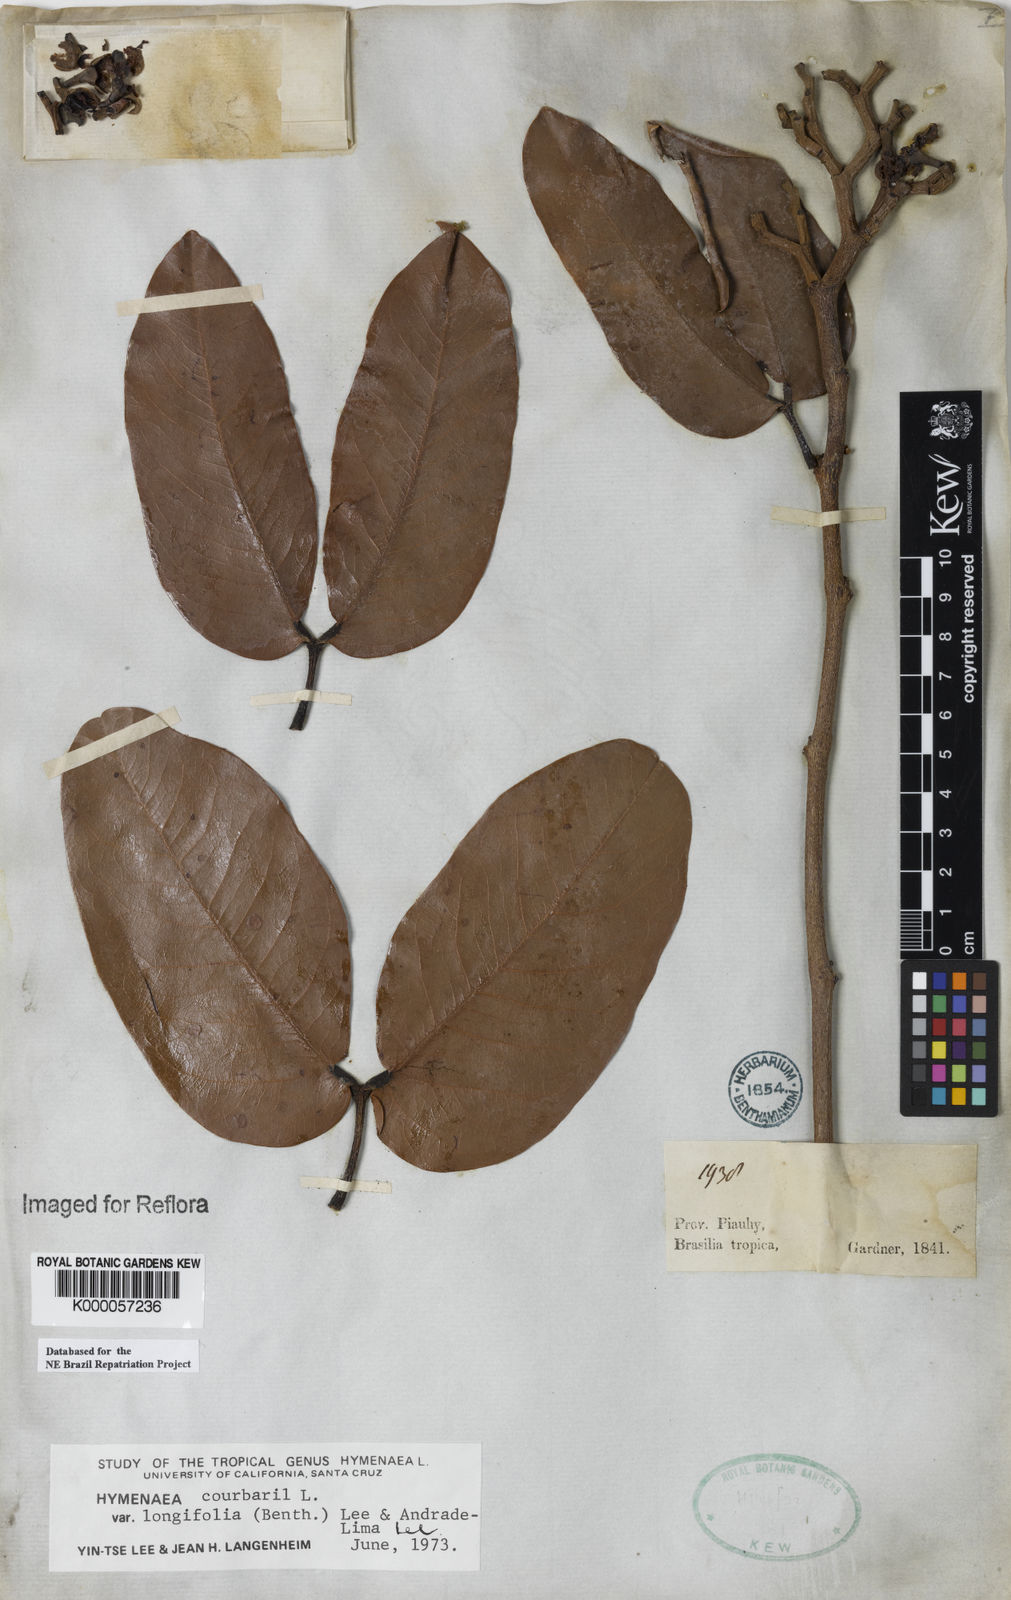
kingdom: Plantae
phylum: Tracheophyta
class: Magnoliopsida
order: Fabales
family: Fabaceae
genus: Hymenaea
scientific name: Hymenaea longifolia
